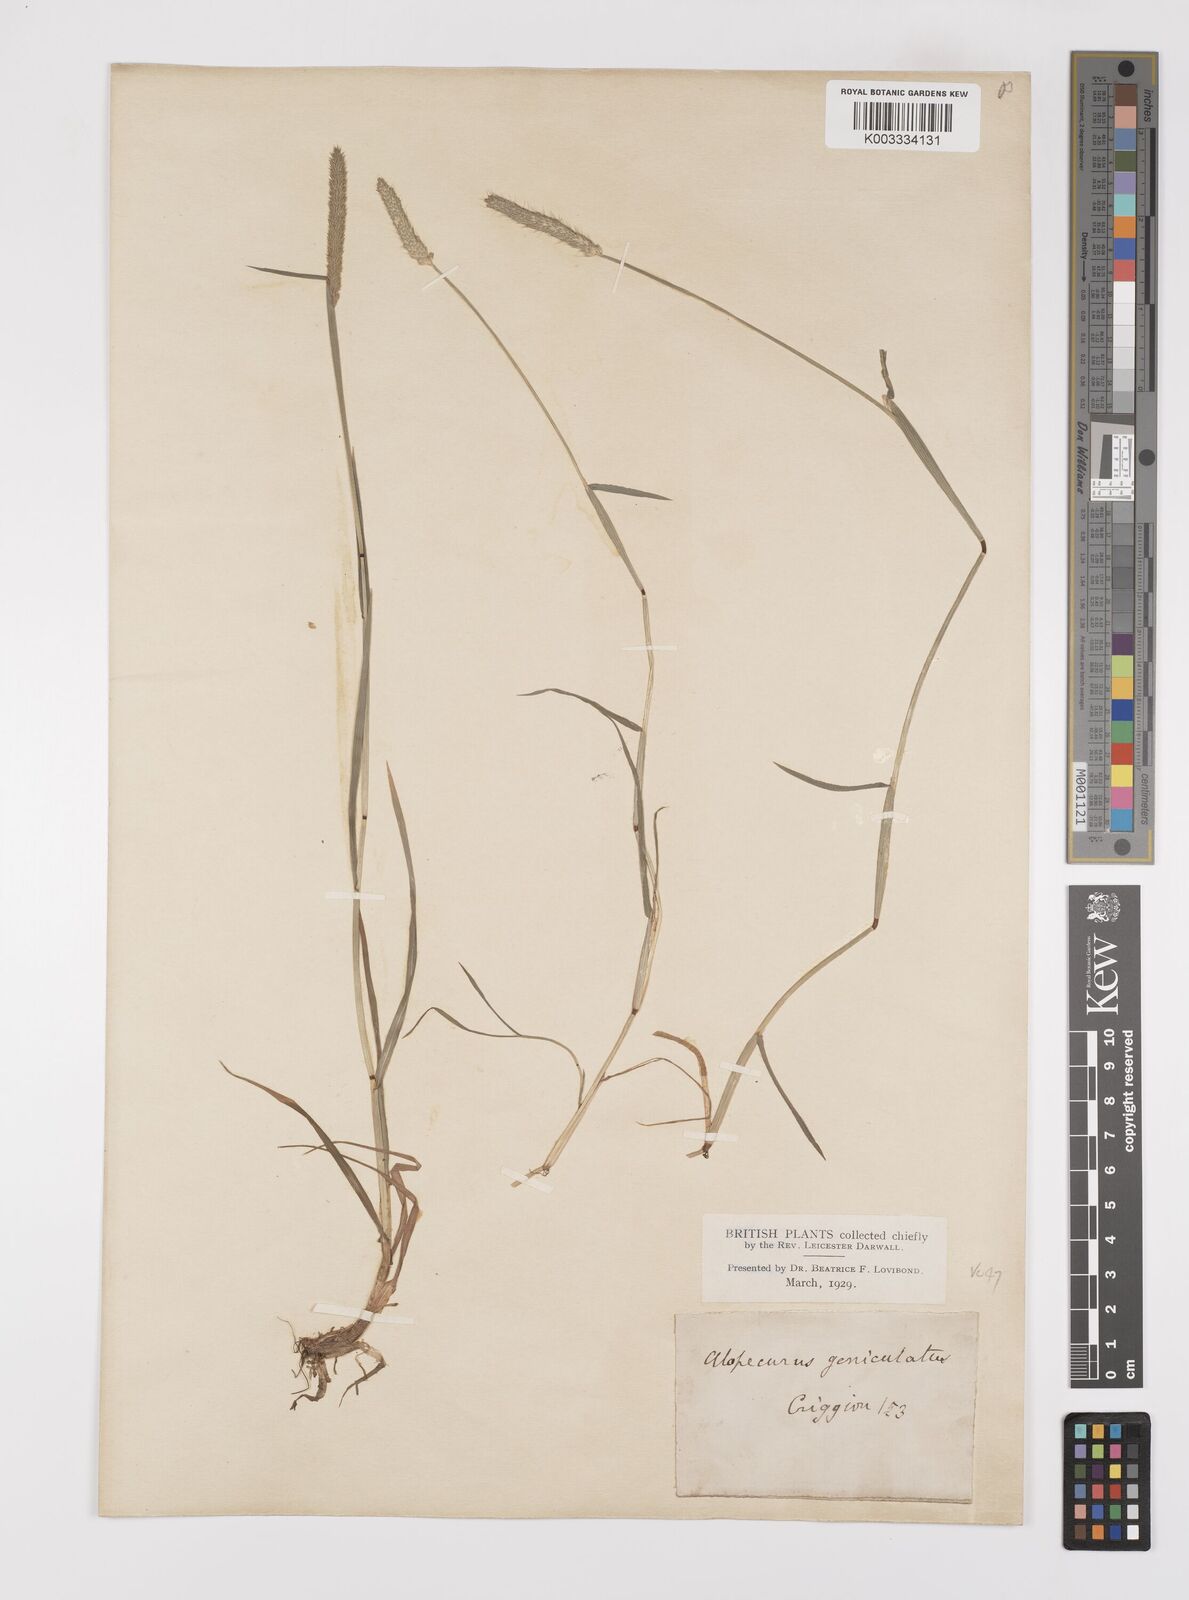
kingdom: Plantae
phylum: Tracheophyta
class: Liliopsida
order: Poales
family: Poaceae
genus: Alopecurus
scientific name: Alopecurus geniculatus
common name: Water foxtail
